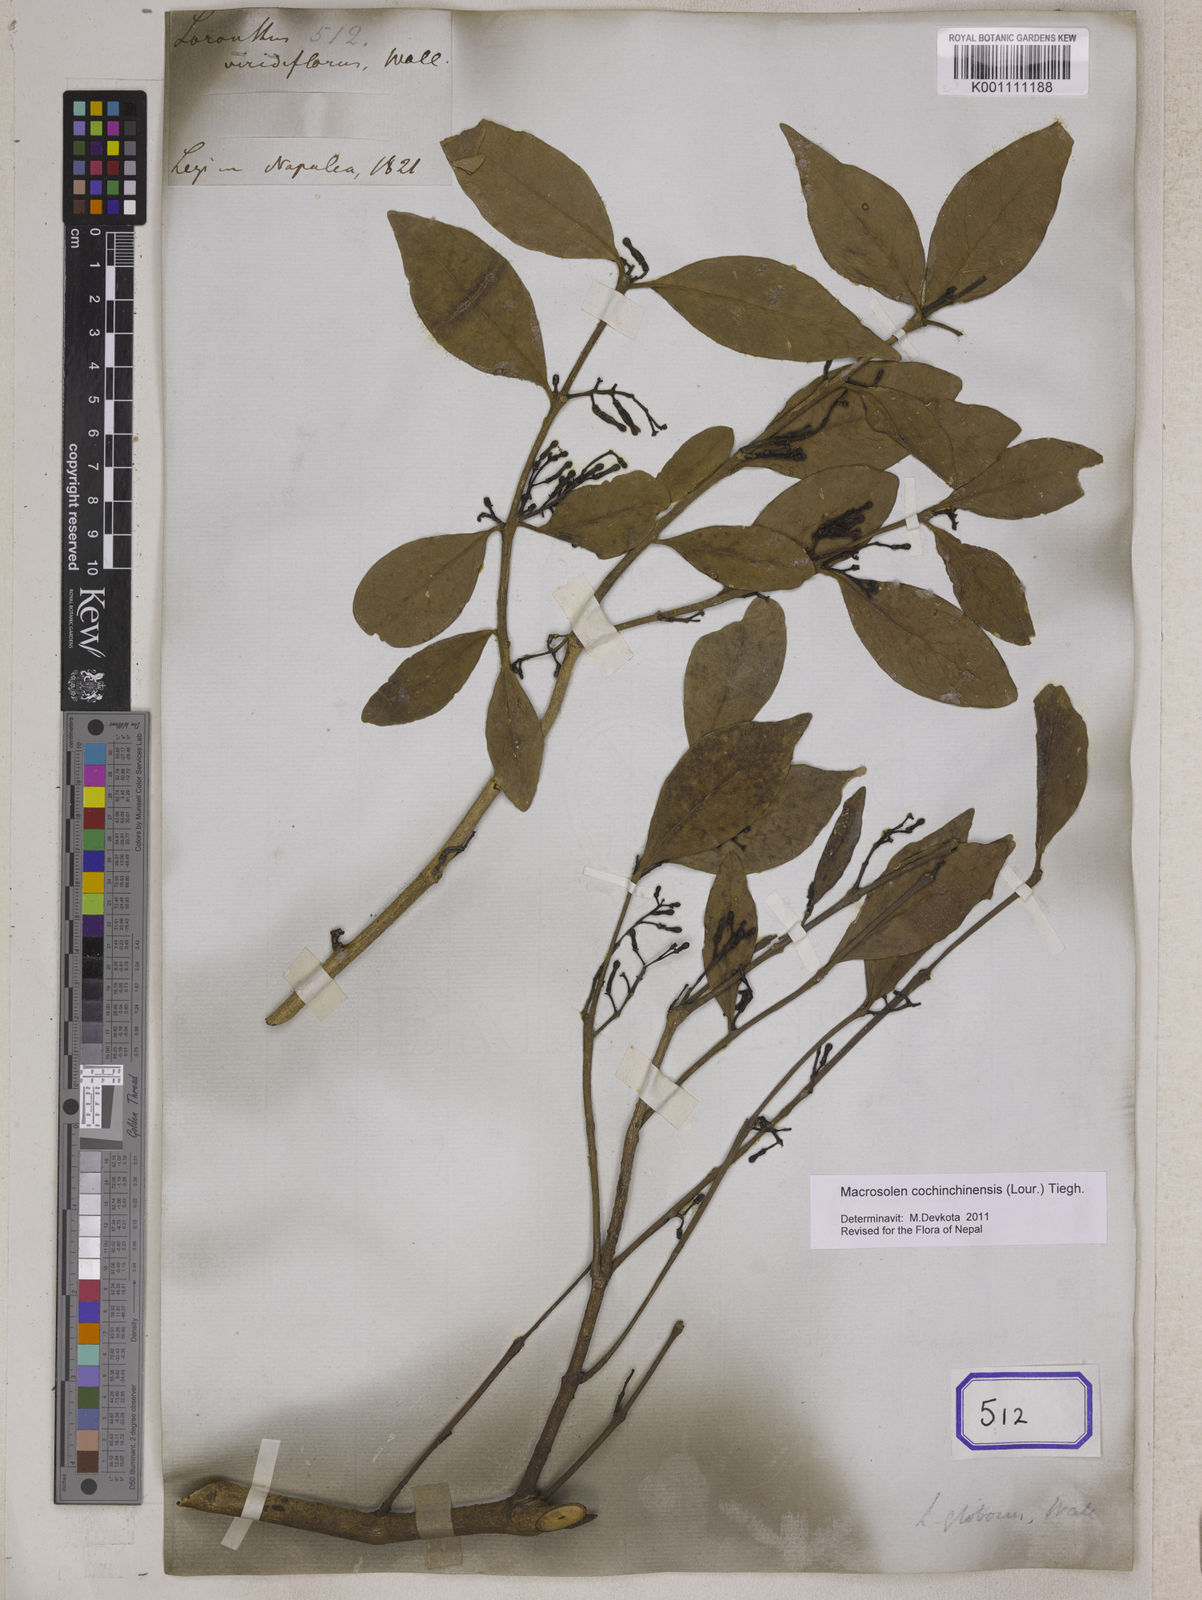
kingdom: Plantae
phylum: Tracheophyta
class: Magnoliopsida
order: Santalales
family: Loranthaceae
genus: Macrosolen
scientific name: Macrosolen cochinchinensis
